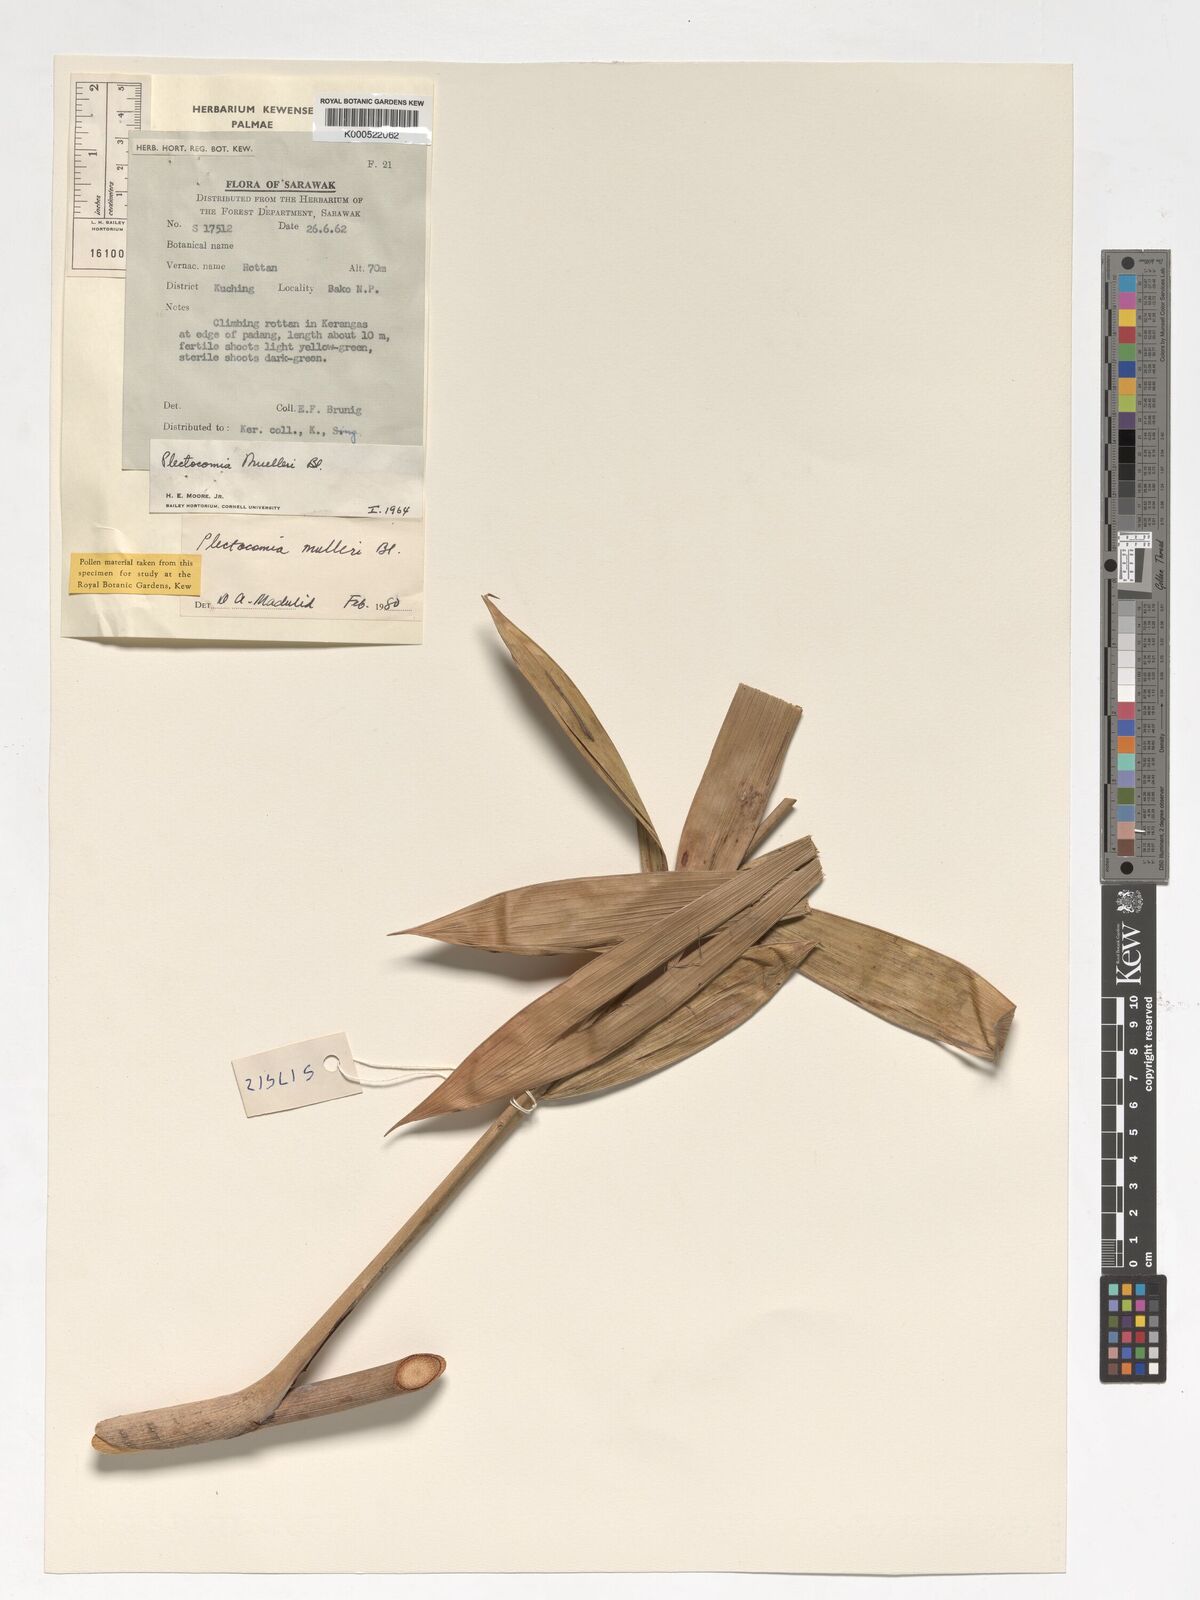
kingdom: Plantae
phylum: Tracheophyta
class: Liliopsida
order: Arecales
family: Arecaceae
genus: Plectocomia
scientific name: Plectocomia mulleri
